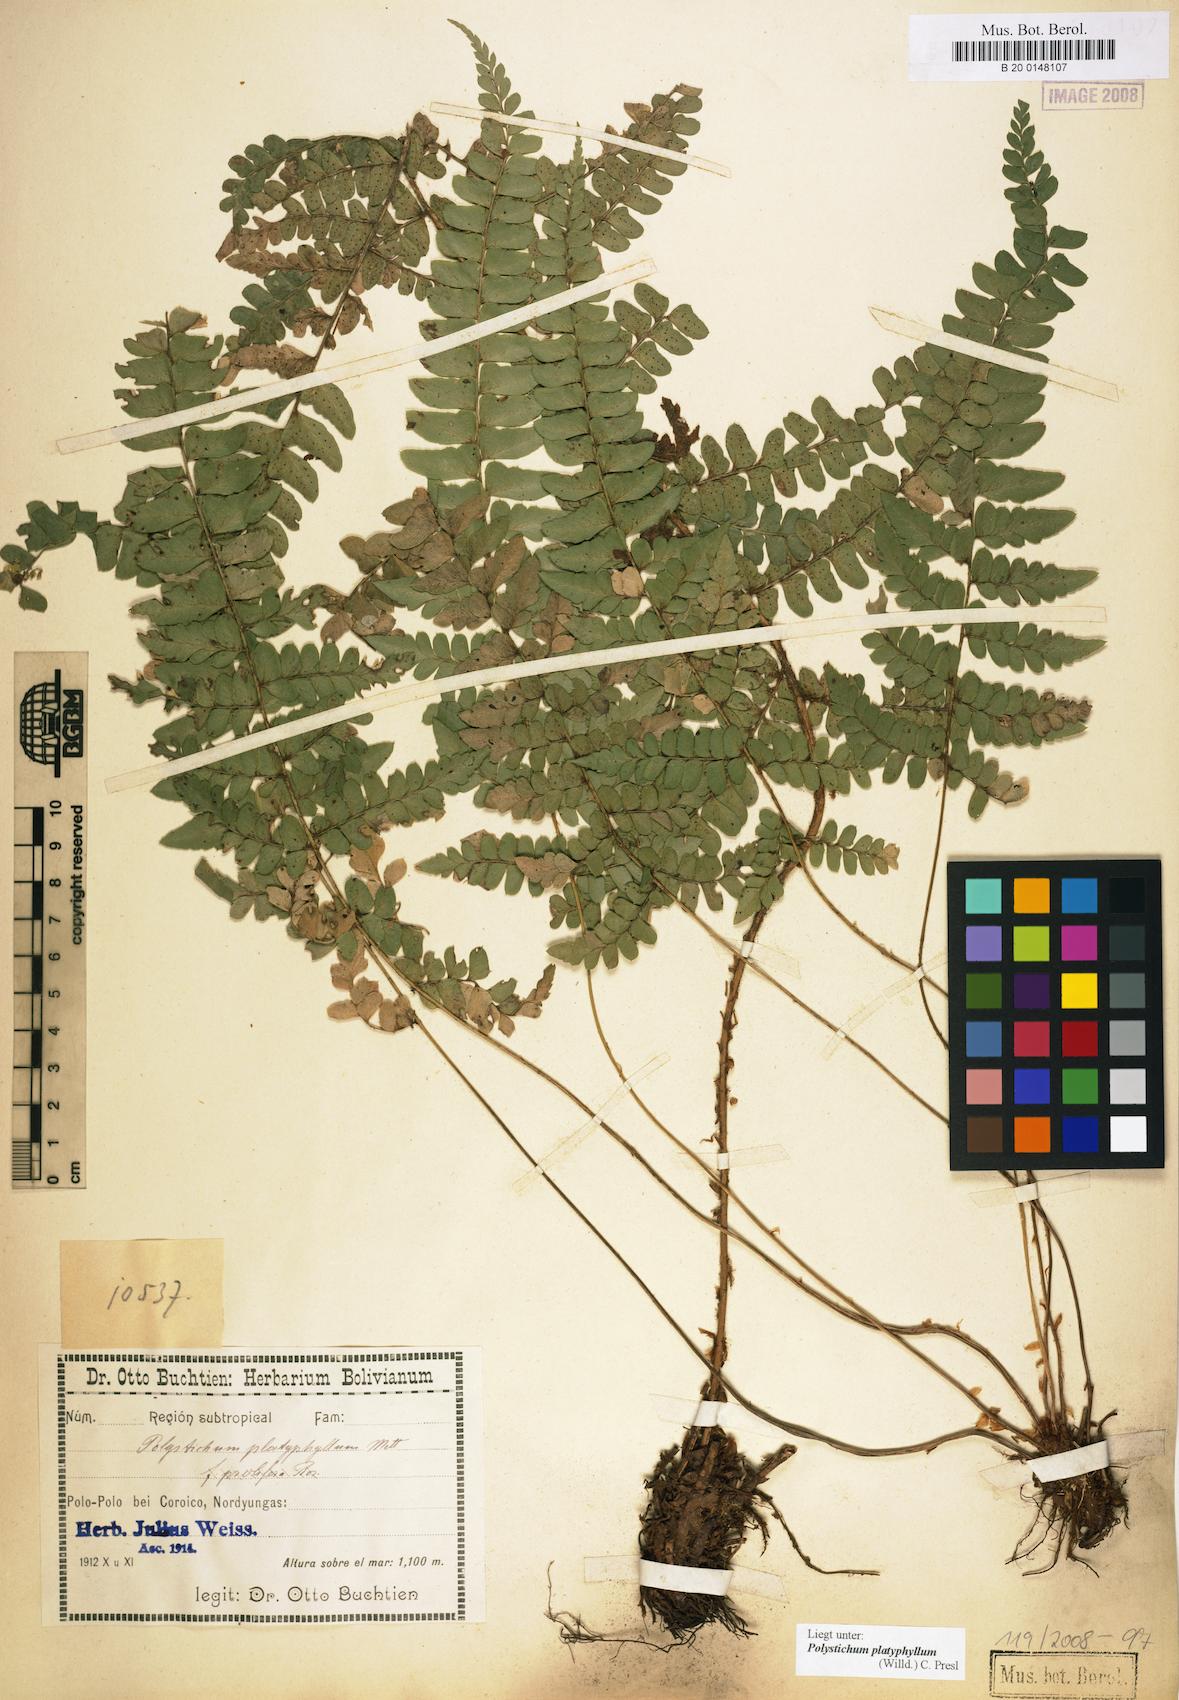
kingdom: Plantae
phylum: Tracheophyta
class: Polypodiopsida
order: Polypodiales
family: Dryopteridaceae
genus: Polystichum
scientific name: Polystichum platyphyllum
